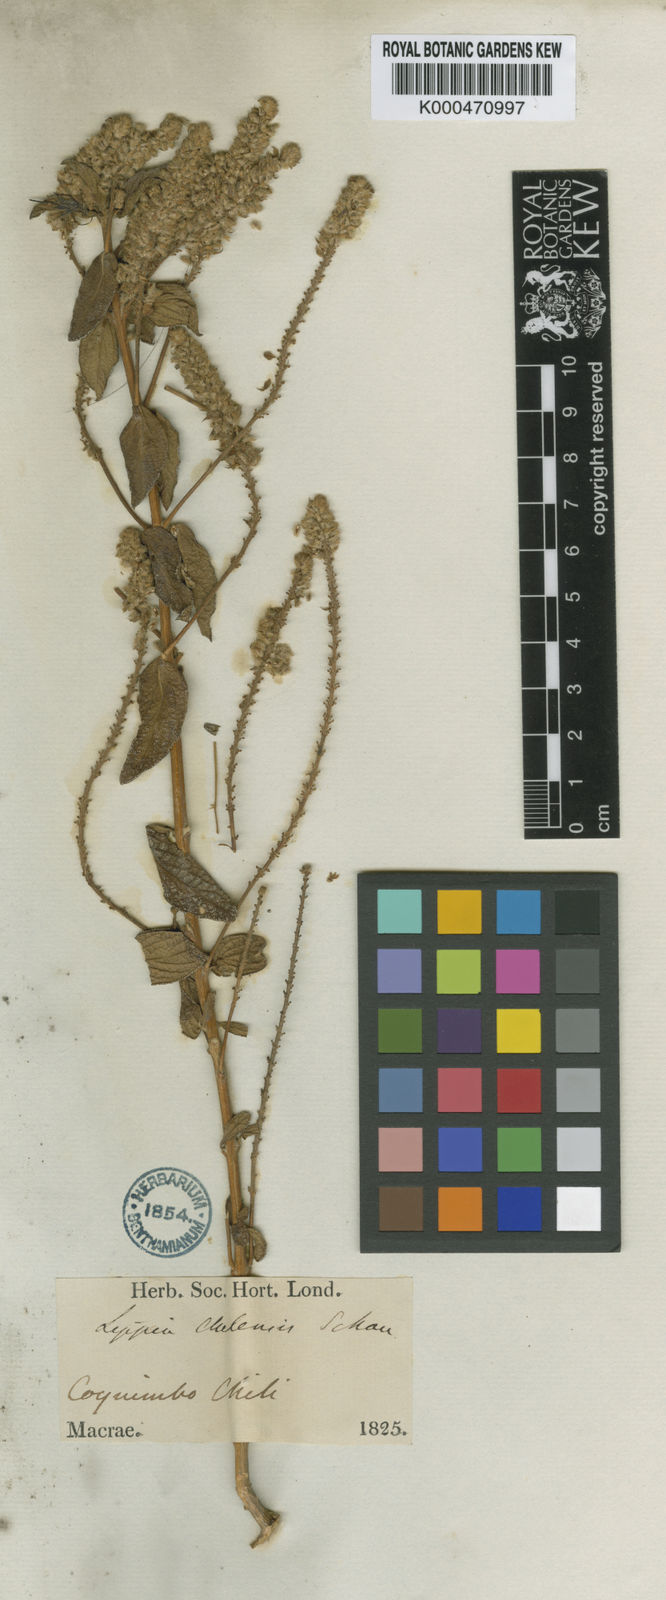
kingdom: Plantae
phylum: Tracheophyta
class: Magnoliopsida
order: Lamiales
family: Verbenaceae
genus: Aloysia
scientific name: Aloysia salviifolia
